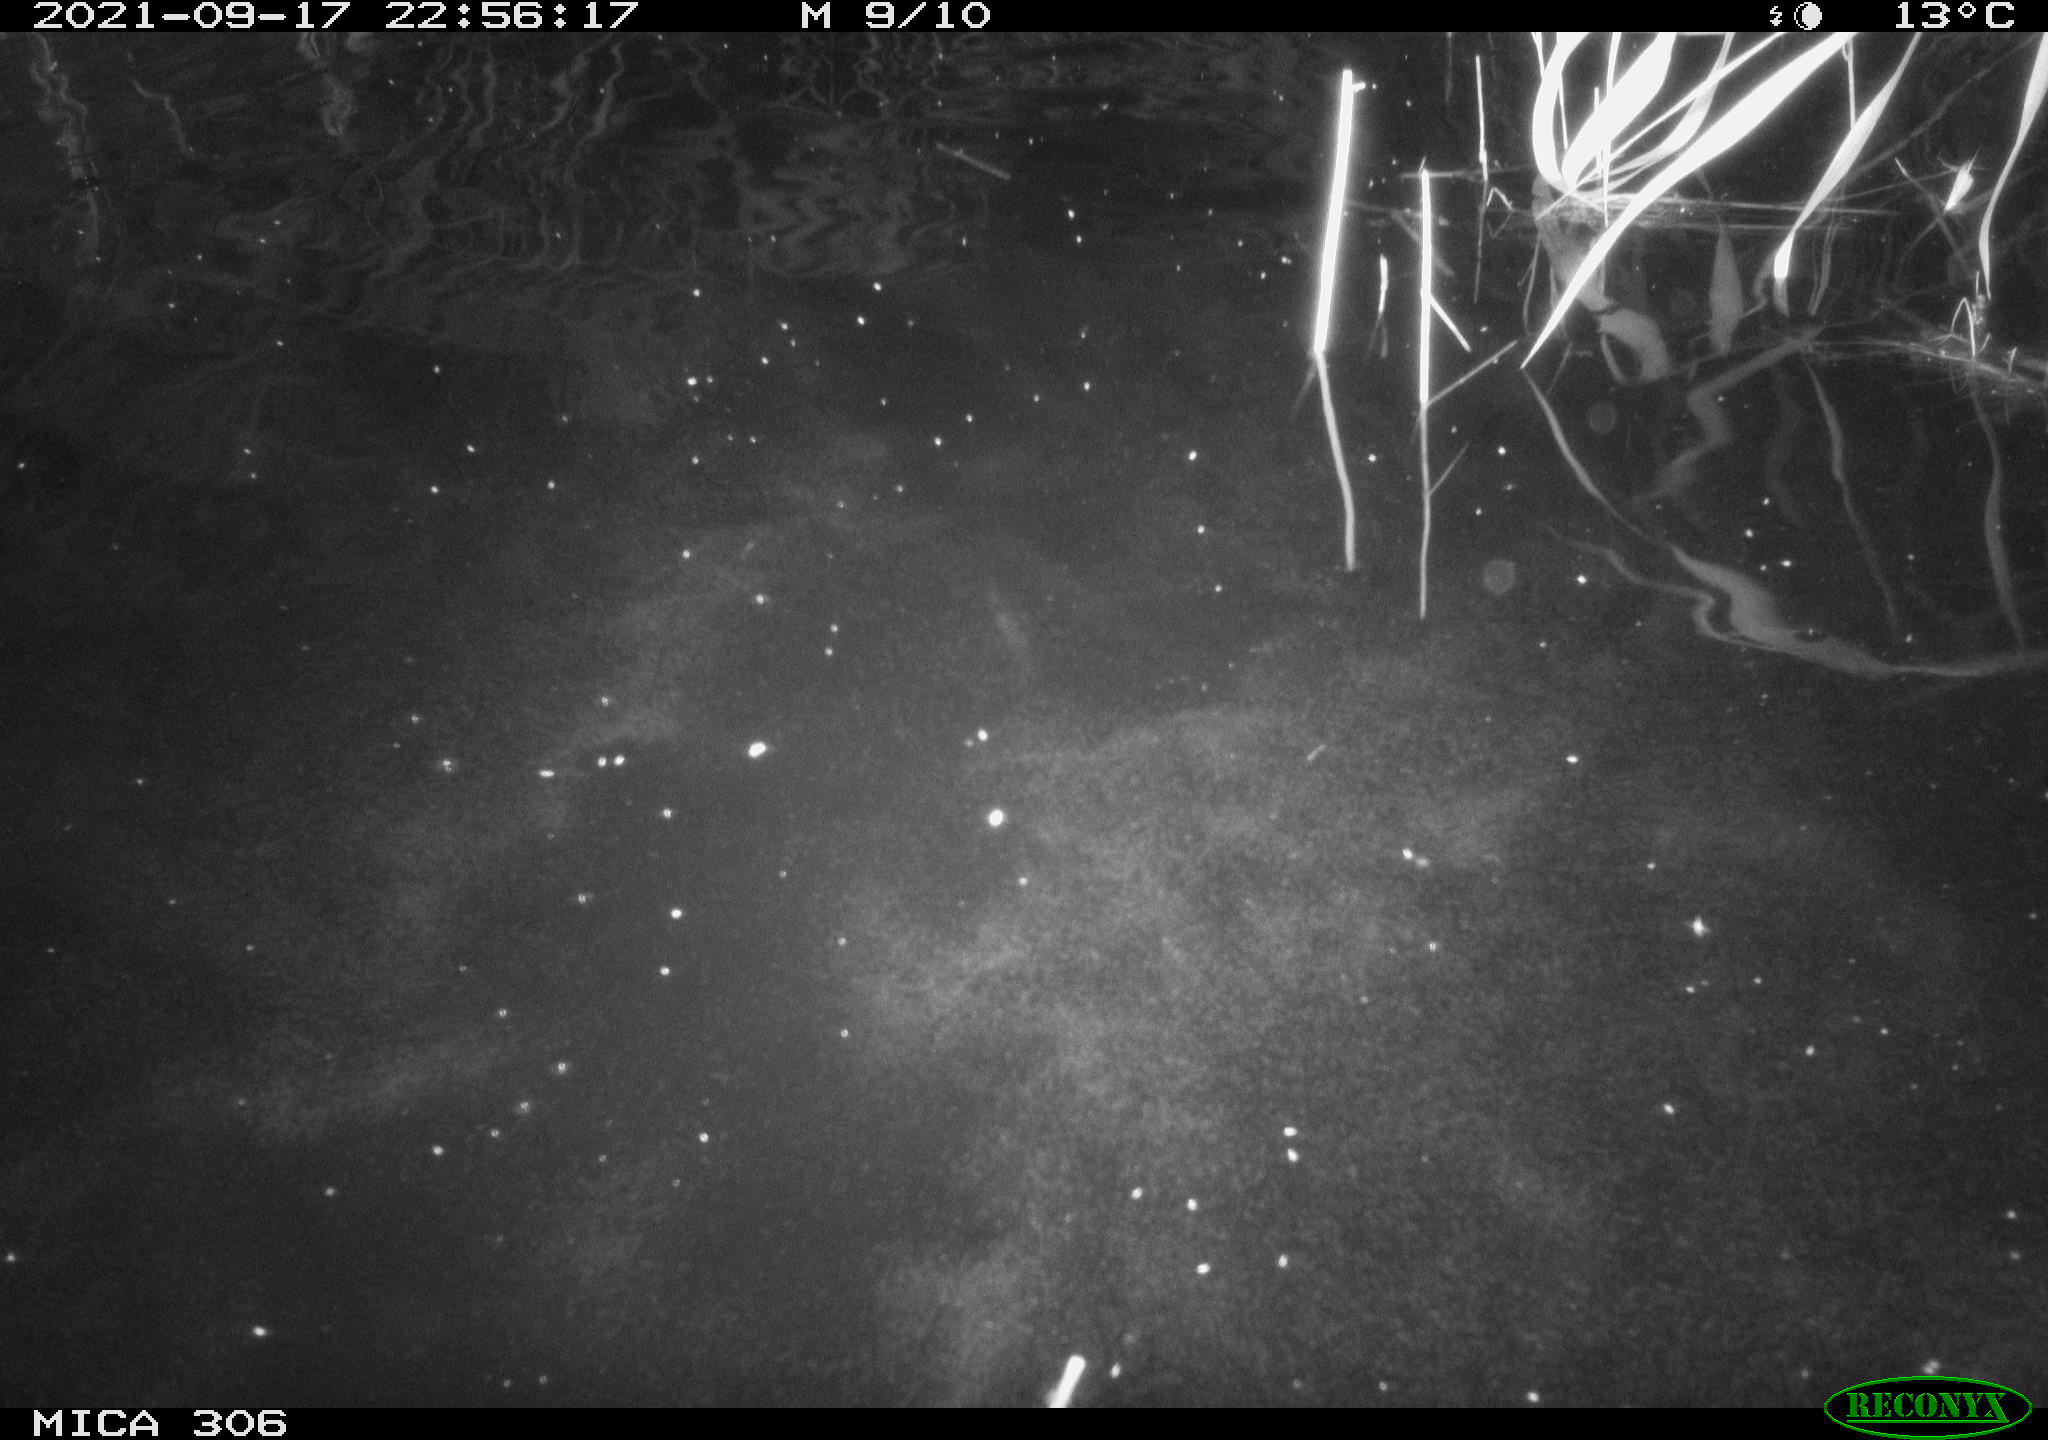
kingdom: Animalia
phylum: Chordata
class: Mammalia
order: Rodentia
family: Cricetidae
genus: Ondatra
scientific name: Ondatra zibethicus
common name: Muskrat
